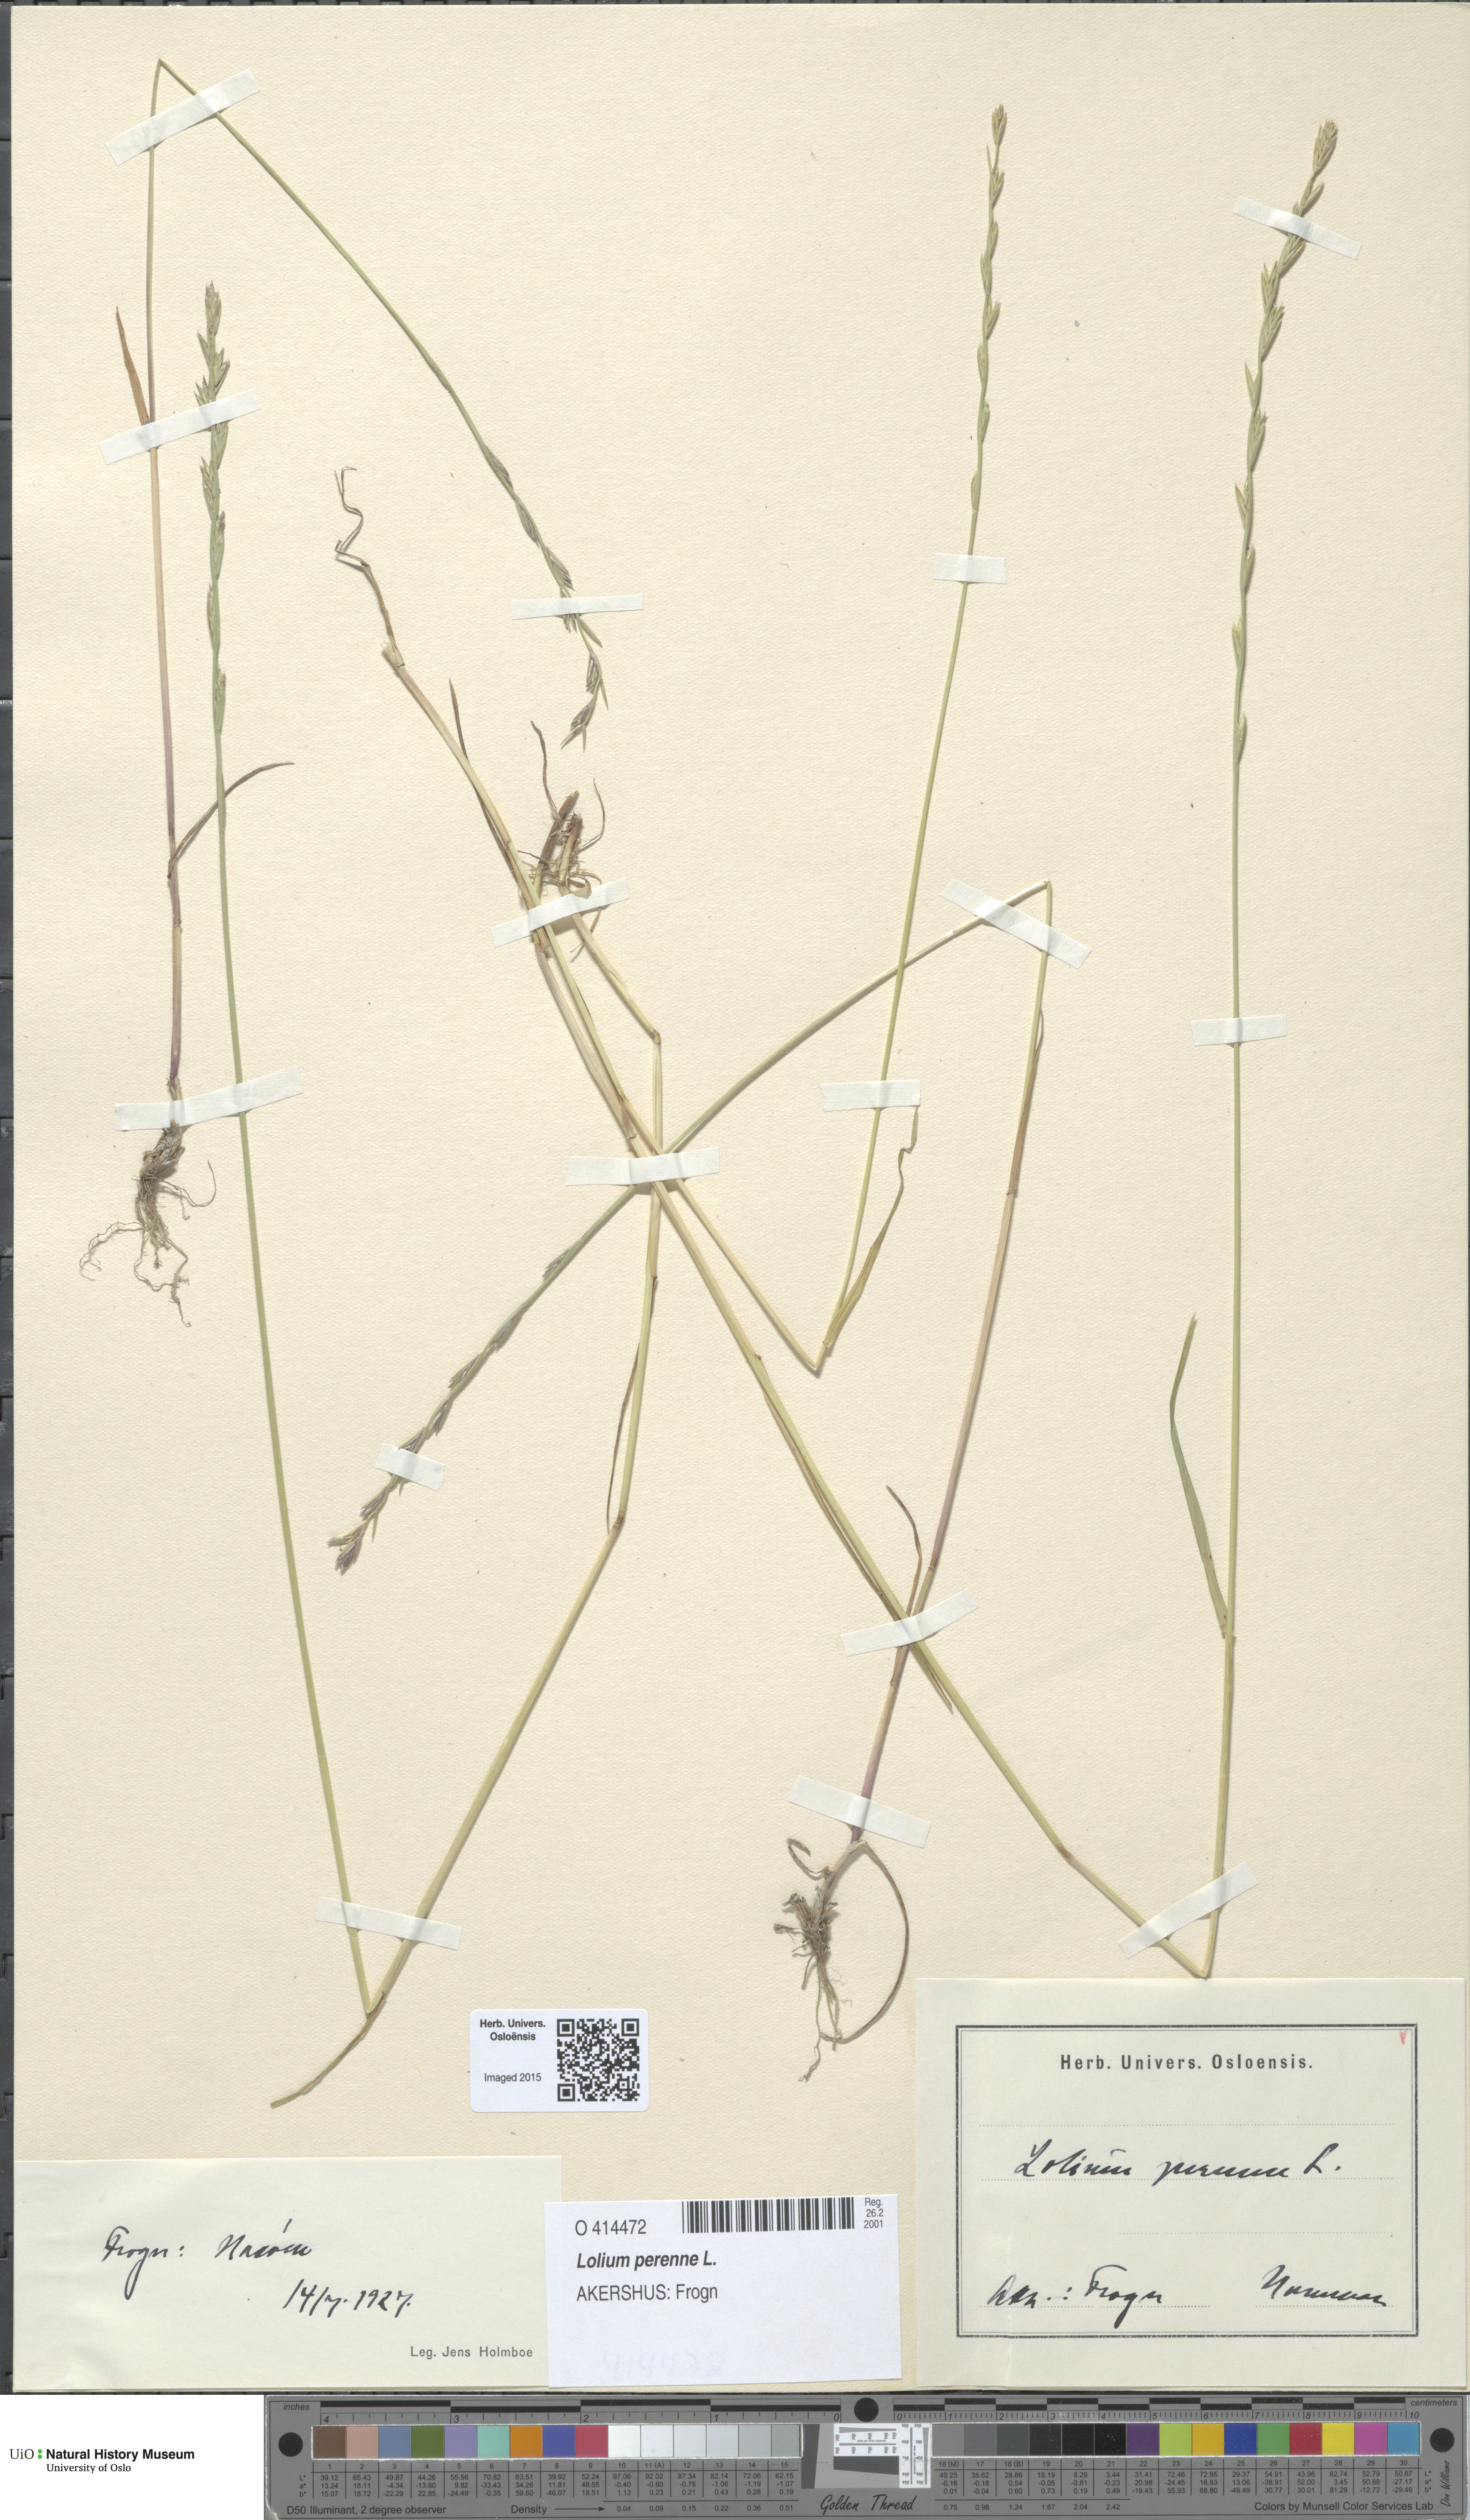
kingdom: Plantae
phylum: Tracheophyta
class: Liliopsida
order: Poales
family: Poaceae
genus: Lolium
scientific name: Lolium perenne
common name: Perennial ryegrass
